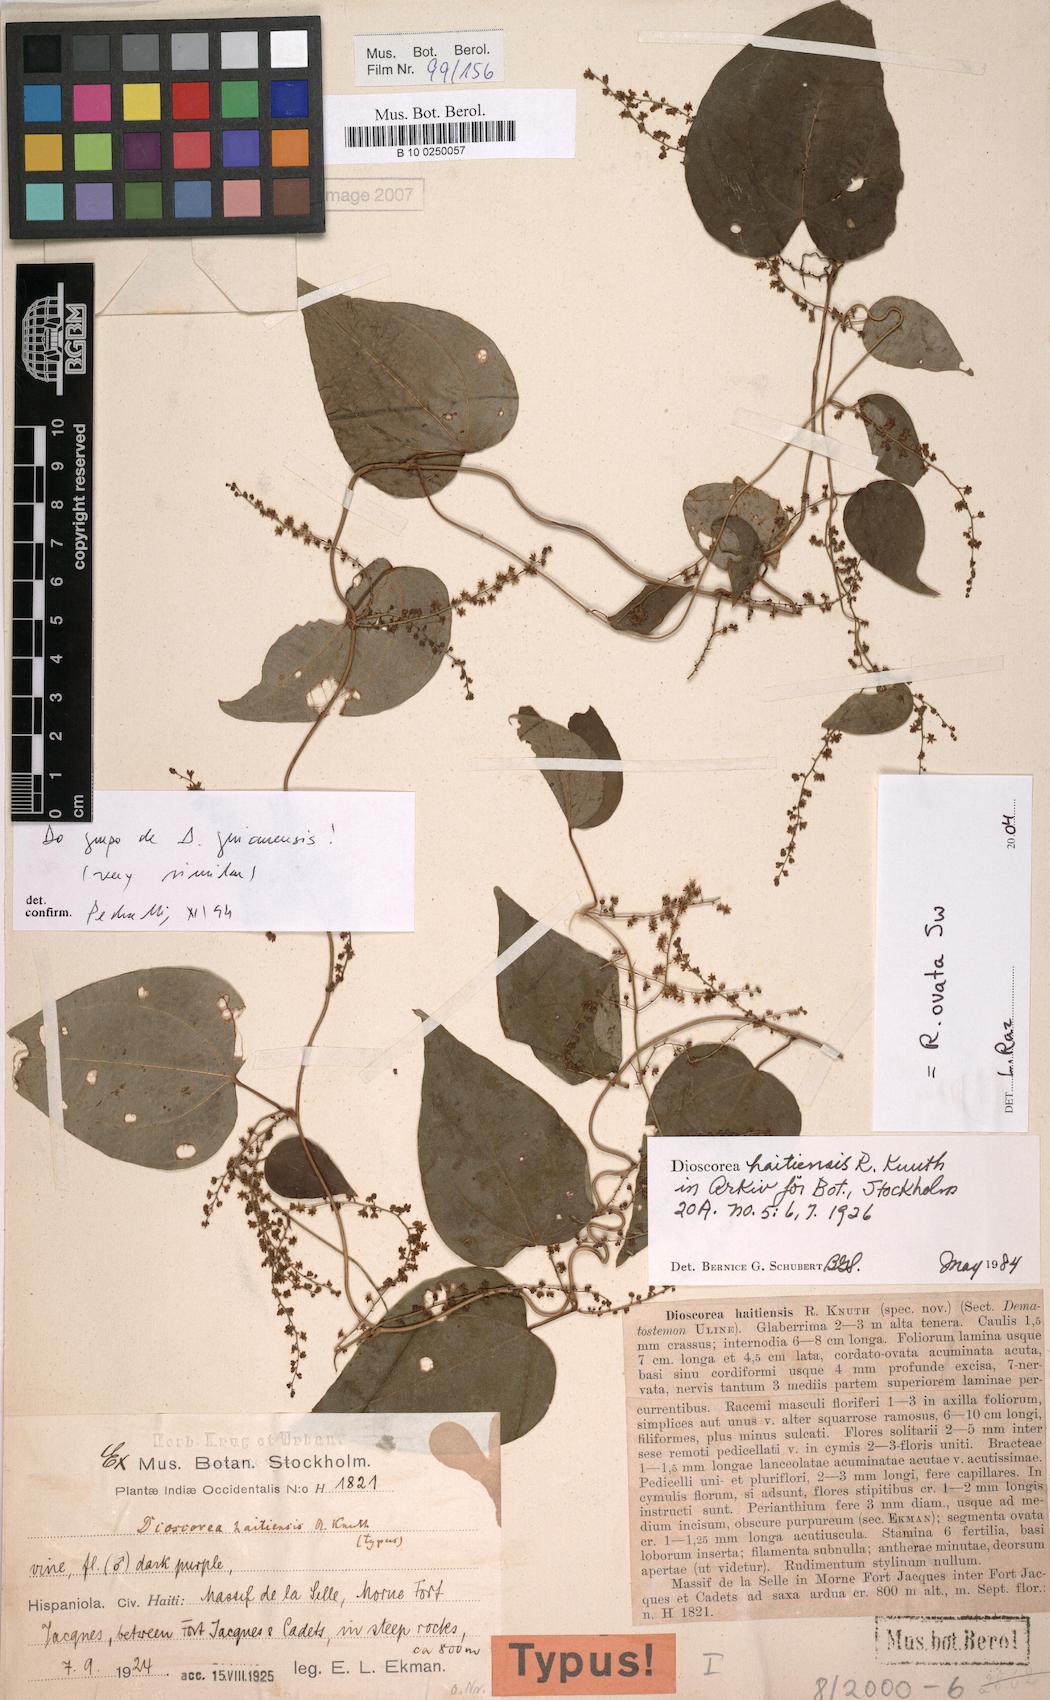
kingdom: Plantae
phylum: Tracheophyta
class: Liliopsida
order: Dioscoreales
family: Dioscoreaceae
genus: Dioscorea
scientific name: Dioscorea haitiensis
